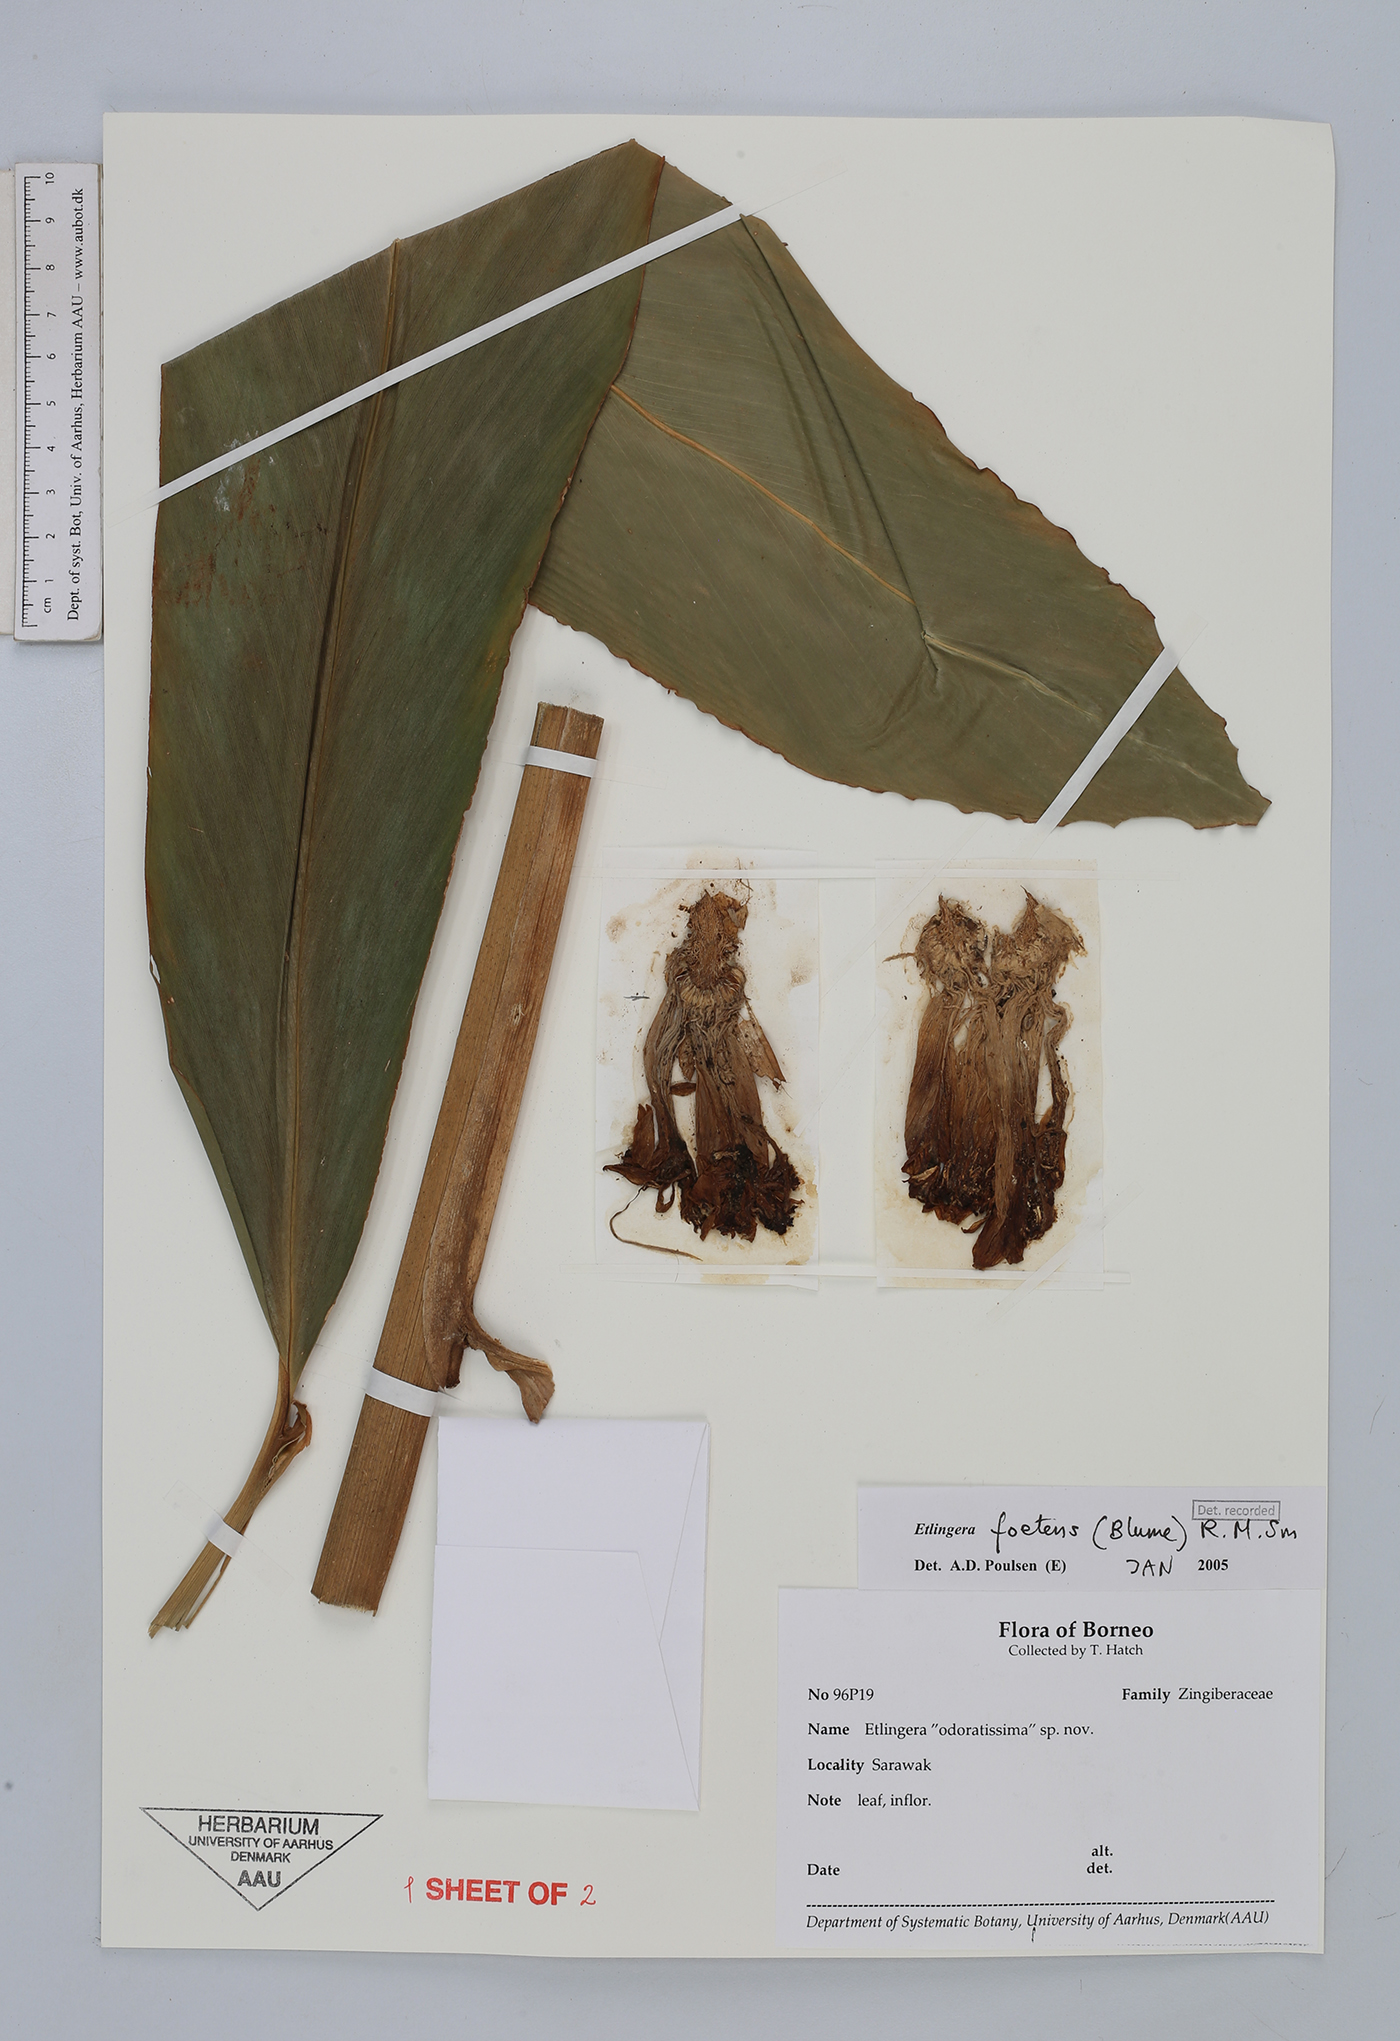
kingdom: Plantae
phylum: Tracheophyta
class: Liliopsida
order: Zingiberales
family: Zingiberaceae
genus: Etlingera
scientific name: Etlingera foetens
